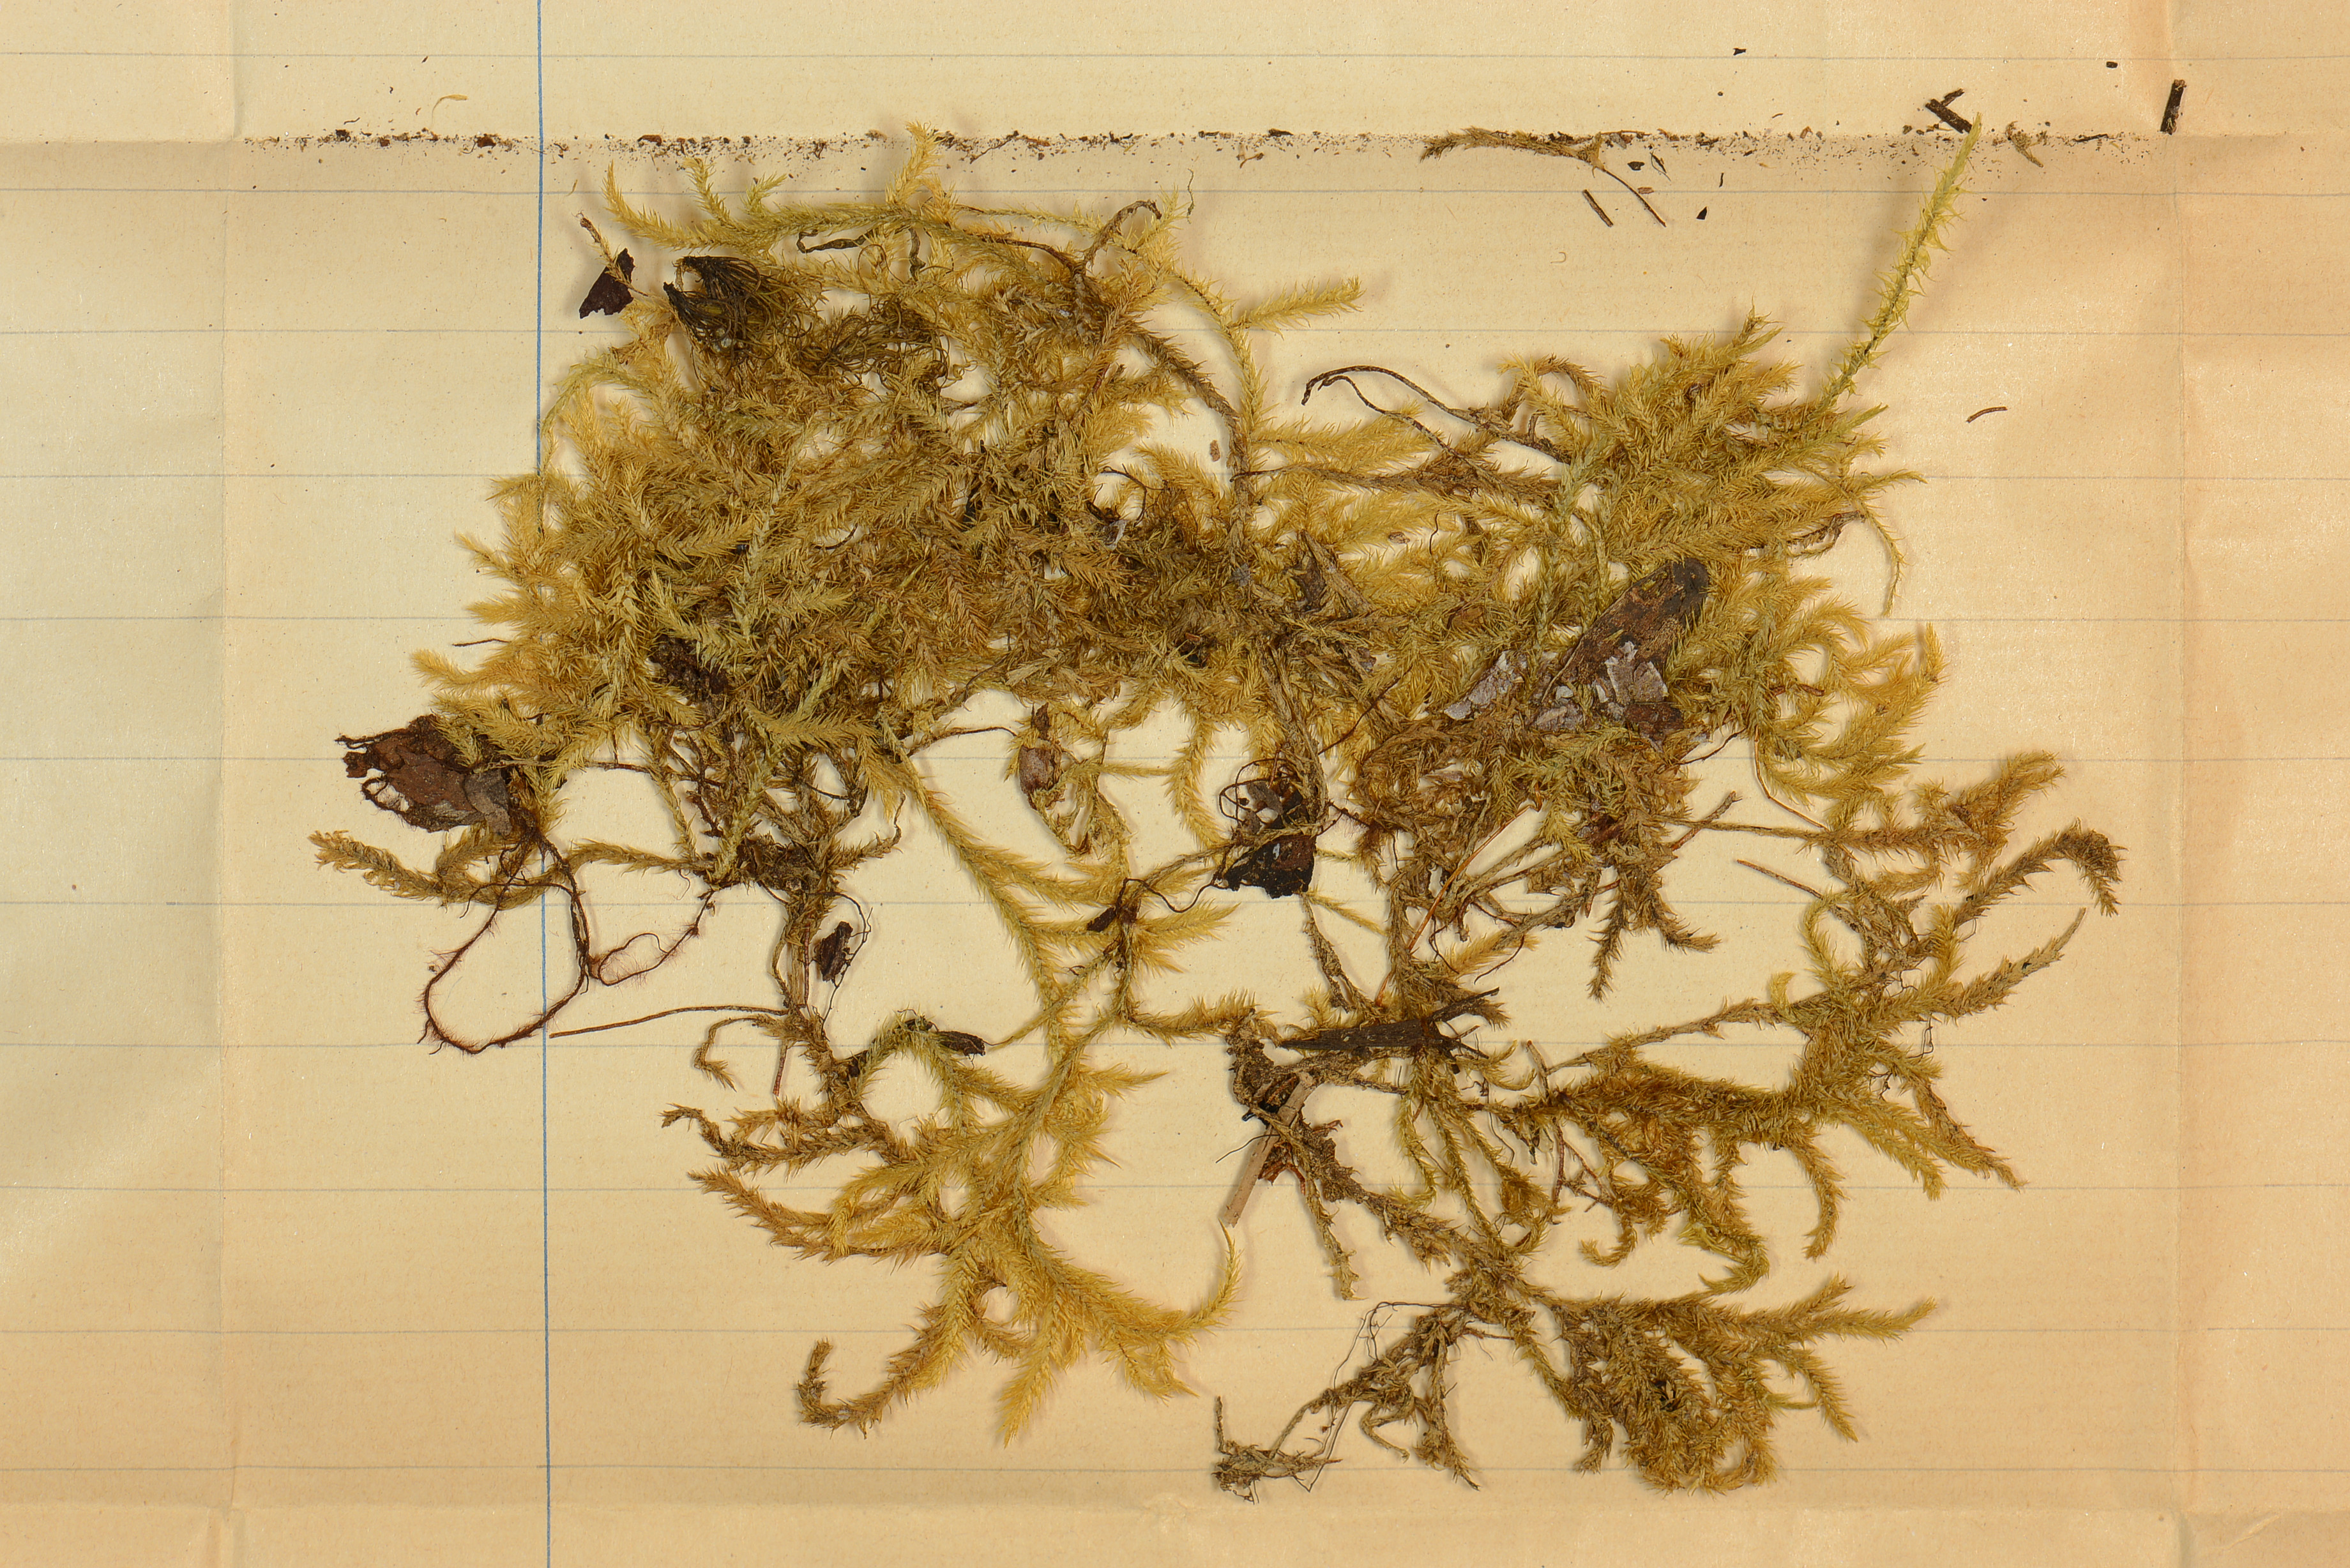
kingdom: Plantae
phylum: Bryophyta
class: Bryopsida
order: Hypnales
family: Pylaisiadelphaceae
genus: Trismegistia
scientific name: Trismegistia calderensis
